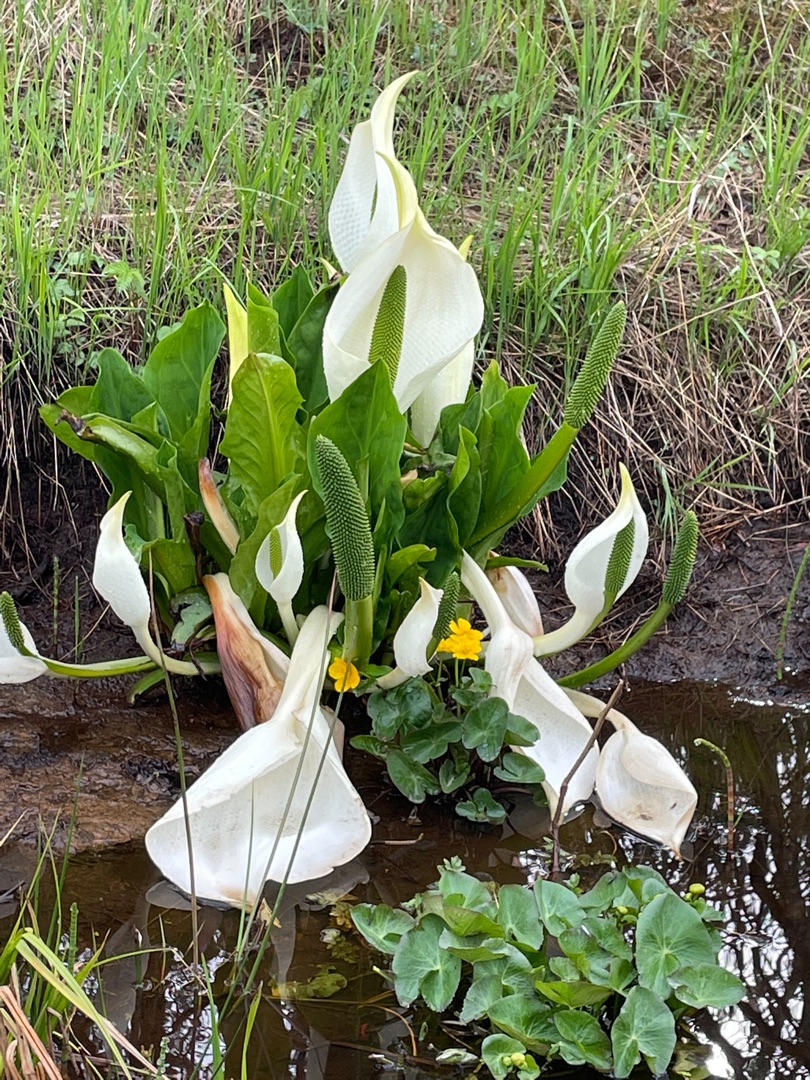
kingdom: Plantae
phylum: Tracheophyta
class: Liliopsida
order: Alismatales
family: Araceae
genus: Lysichiton
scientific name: Lysichiton camtschatcensis
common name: Hvid kæmpekalla
